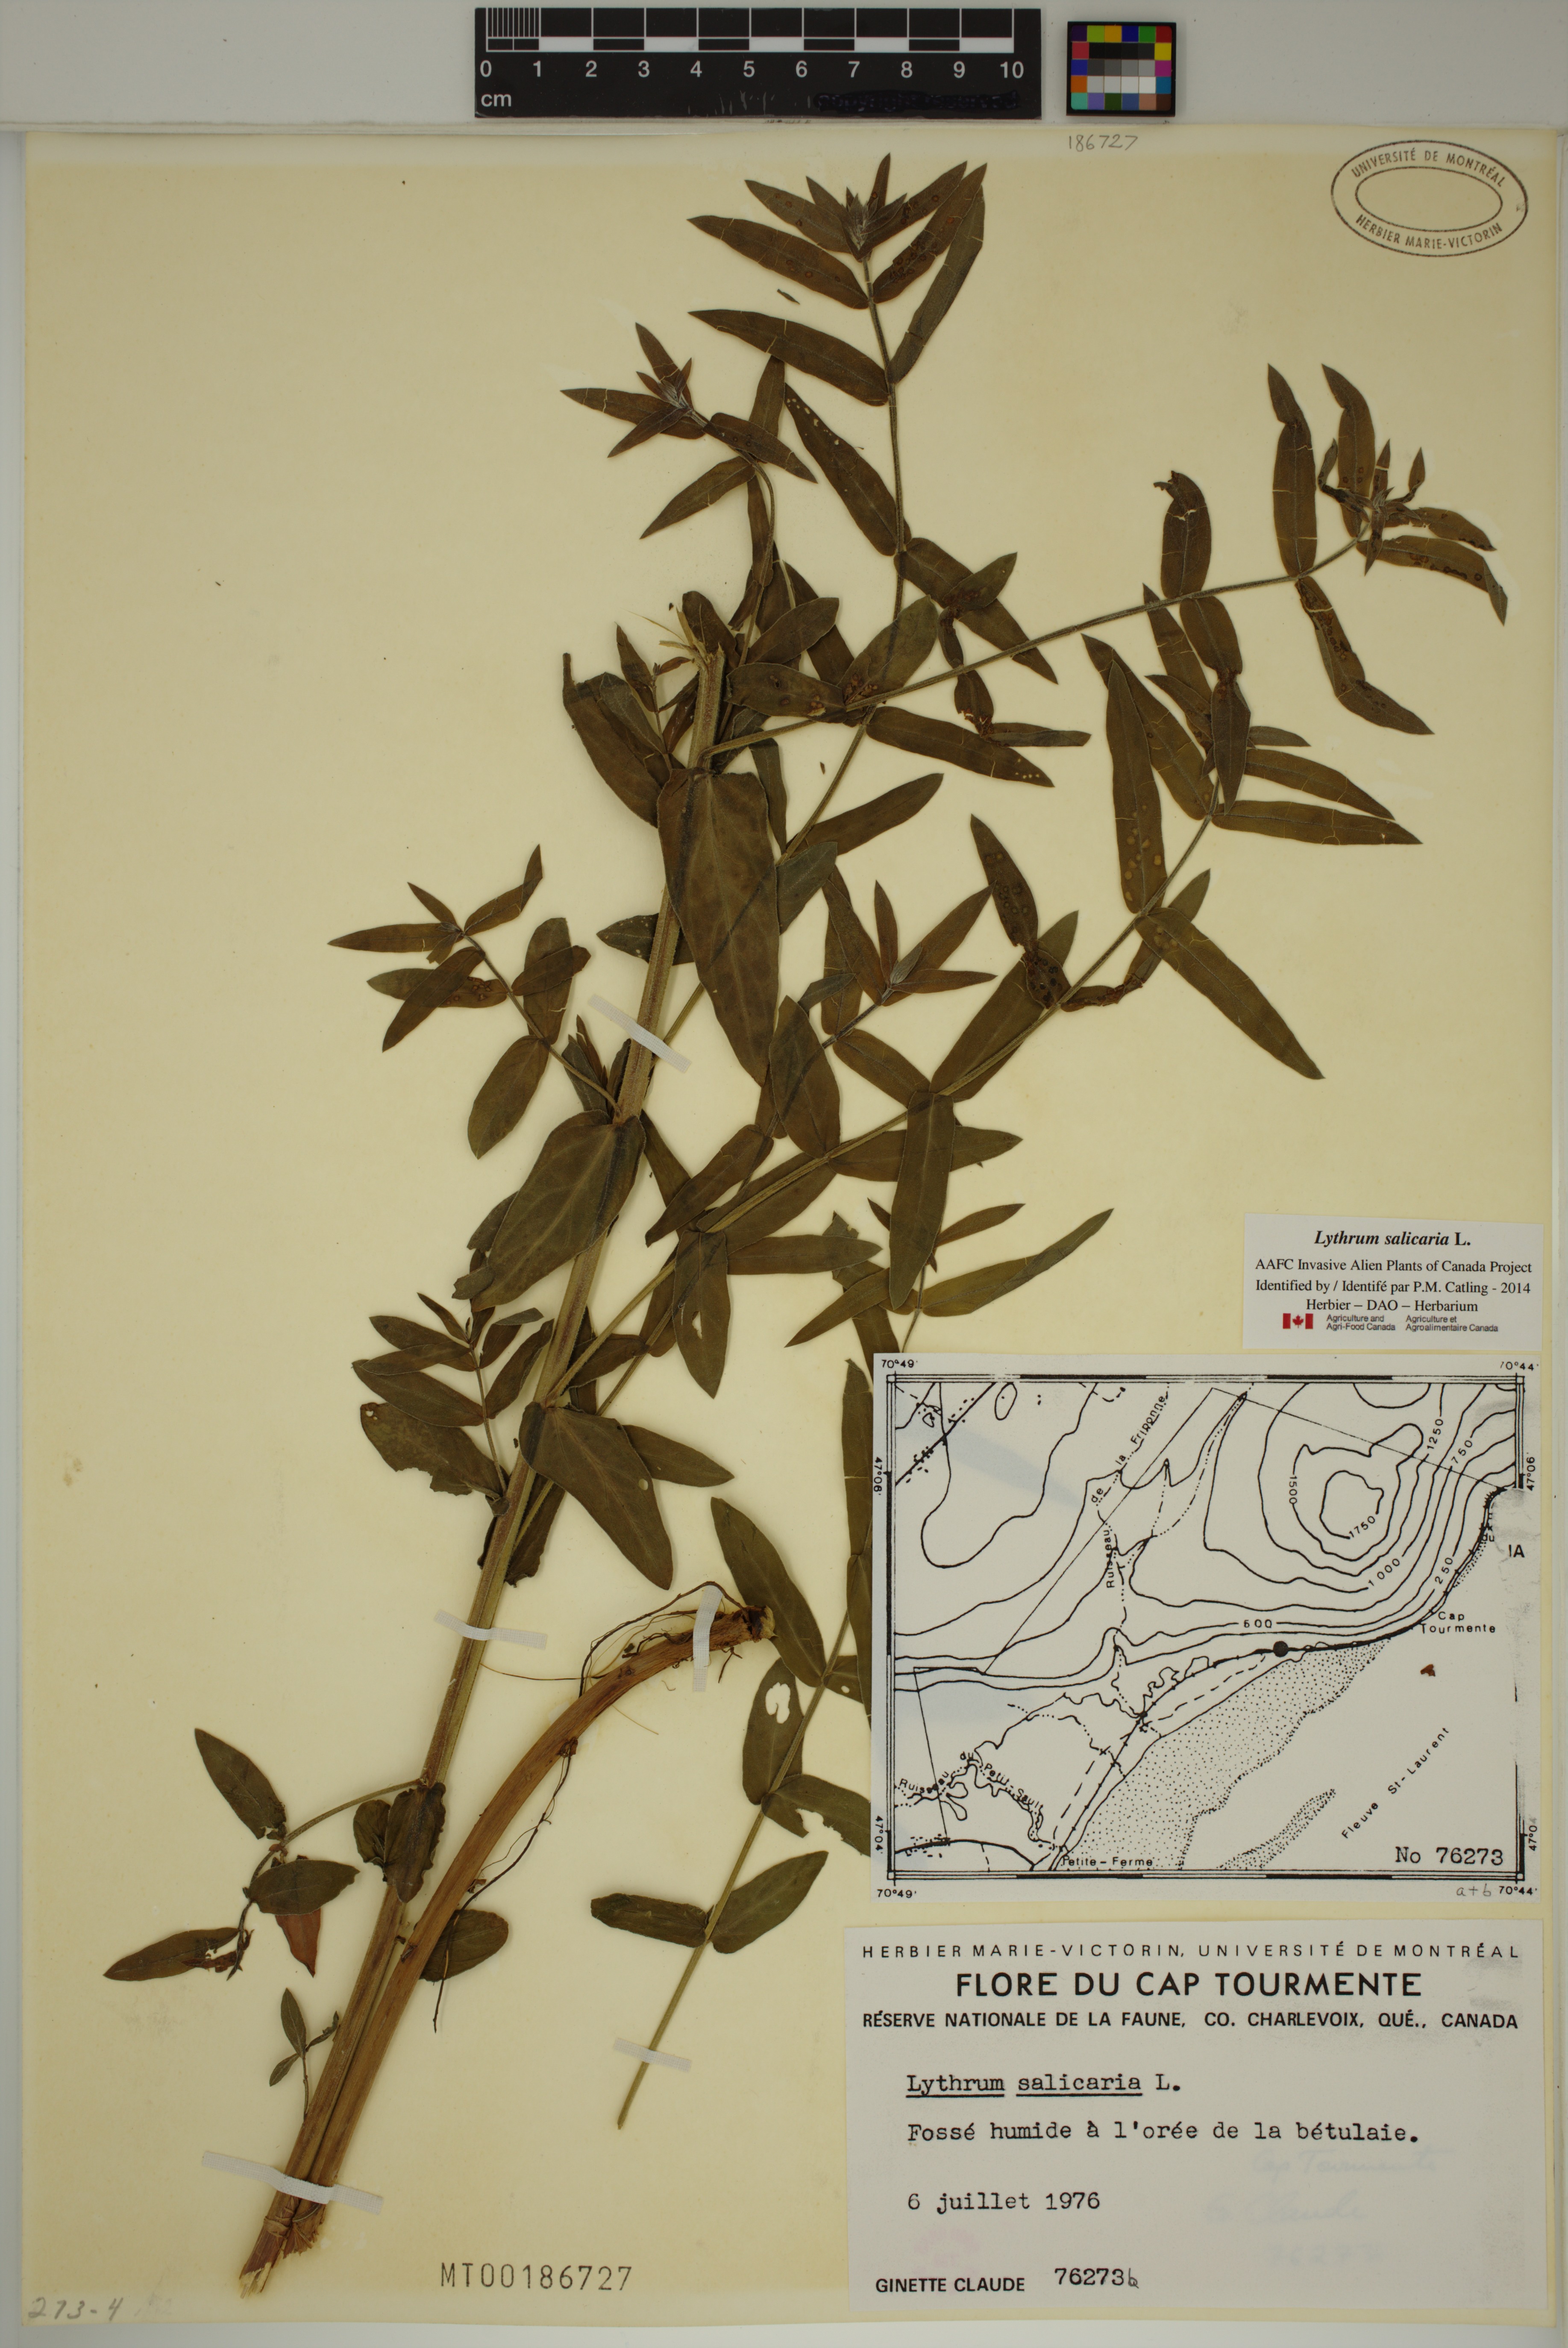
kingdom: Plantae
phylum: Tracheophyta
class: Magnoliopsida
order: Myrtales
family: Lythraceae
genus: Lythrum
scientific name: Lythrum salicaria
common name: Purple loosestrife
